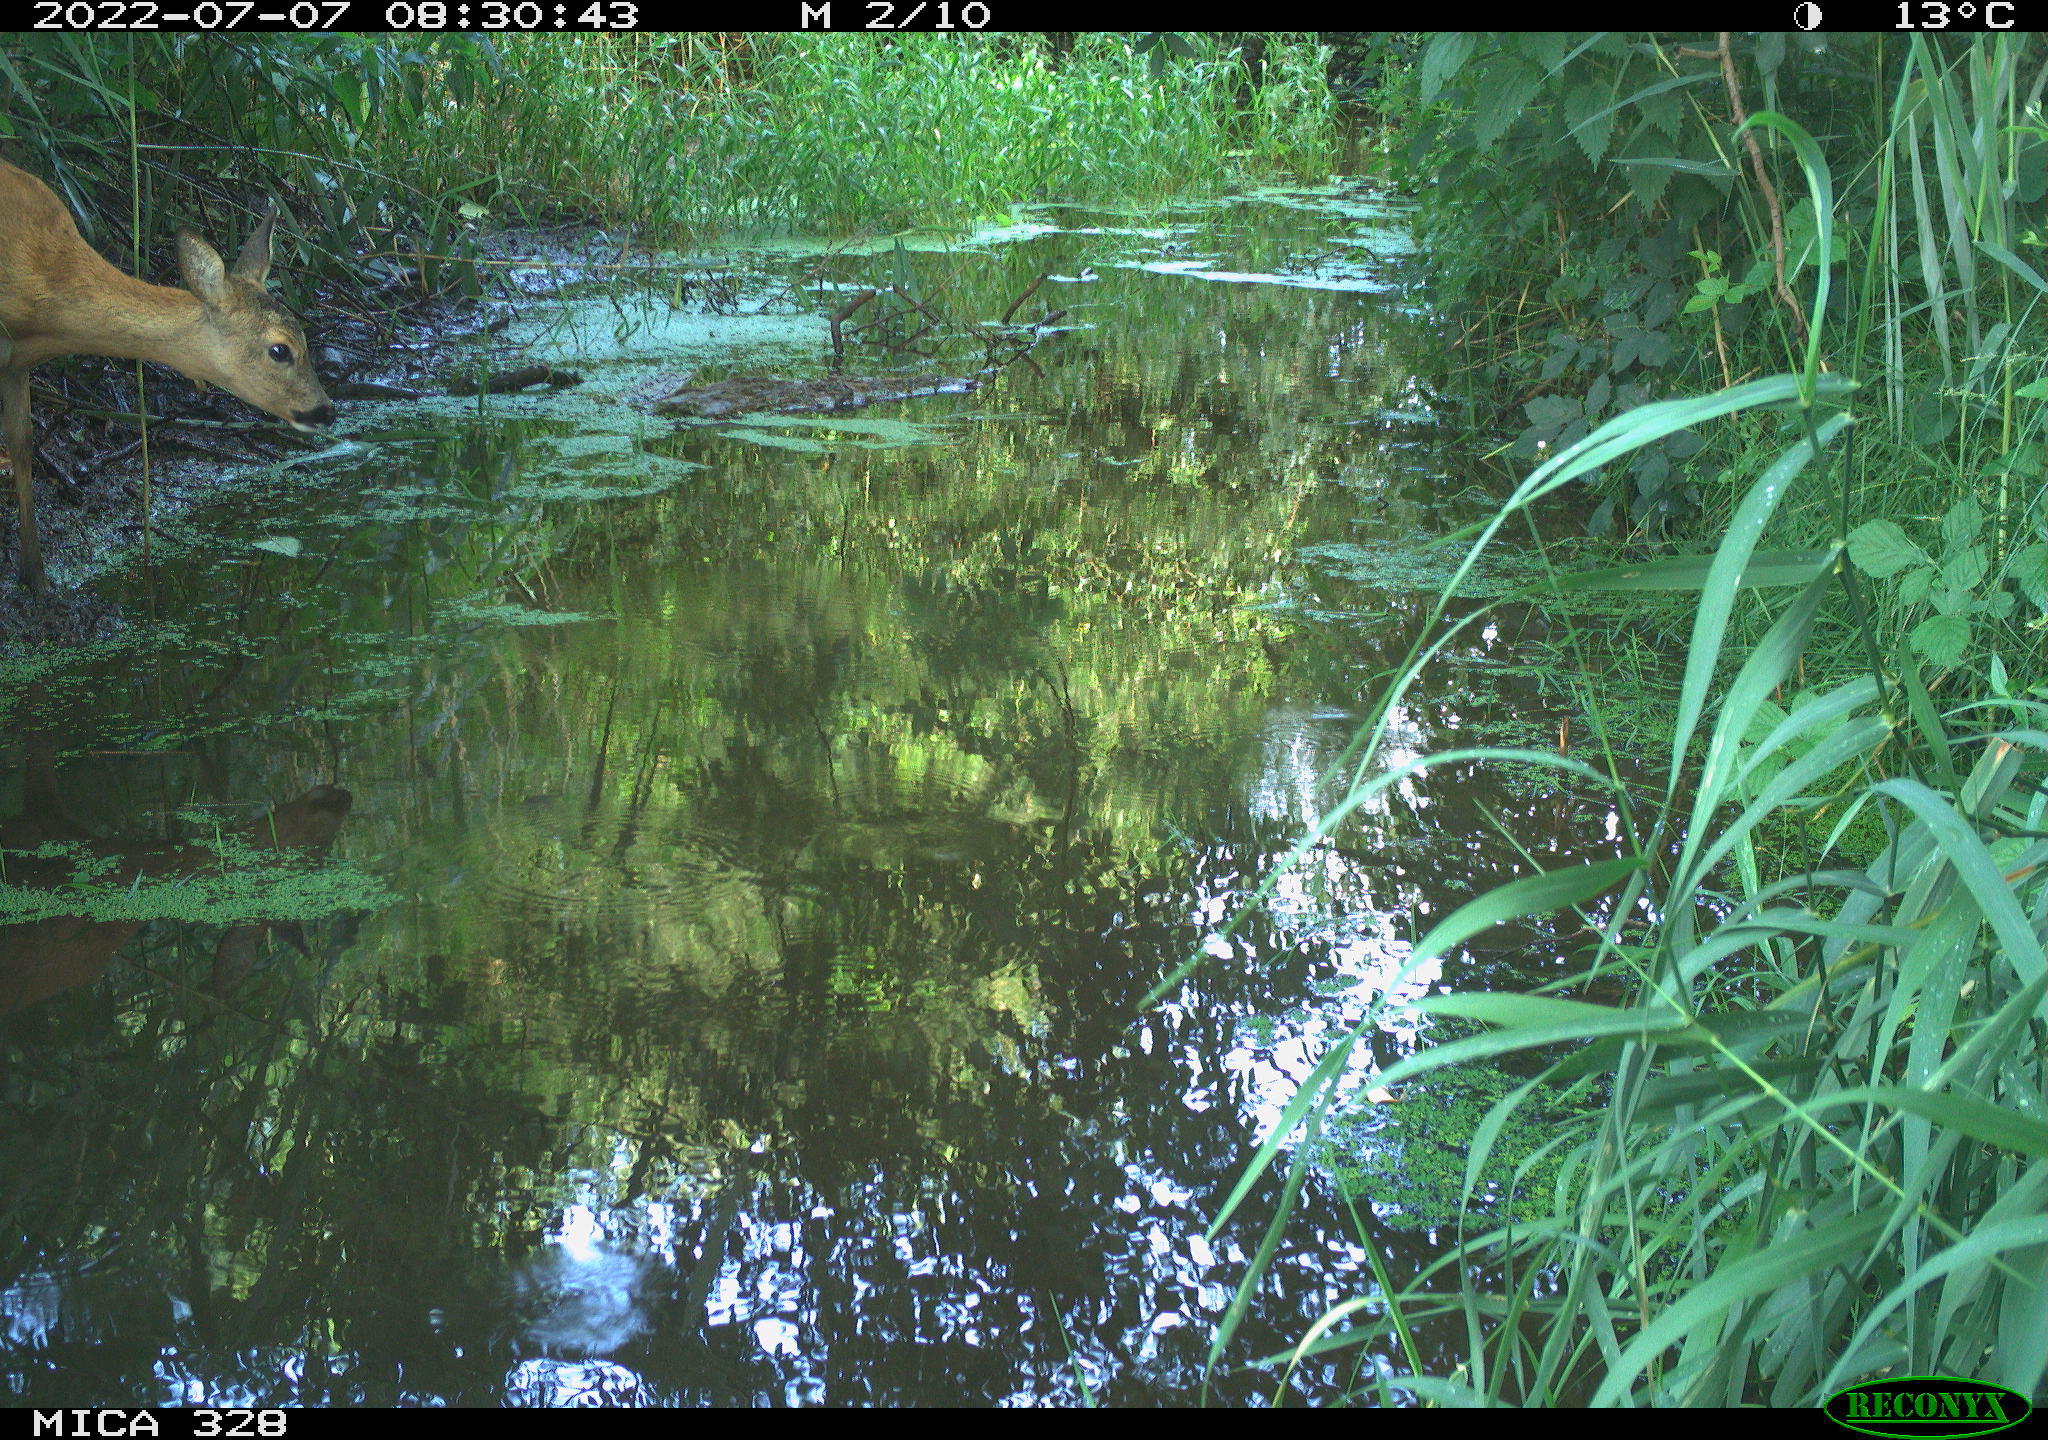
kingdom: Animalia
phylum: Chordata
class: Mammalia
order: Artiodactyla
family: Cervidae
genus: Capreolus
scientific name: Capreolus capreolus
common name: Western roe deer
